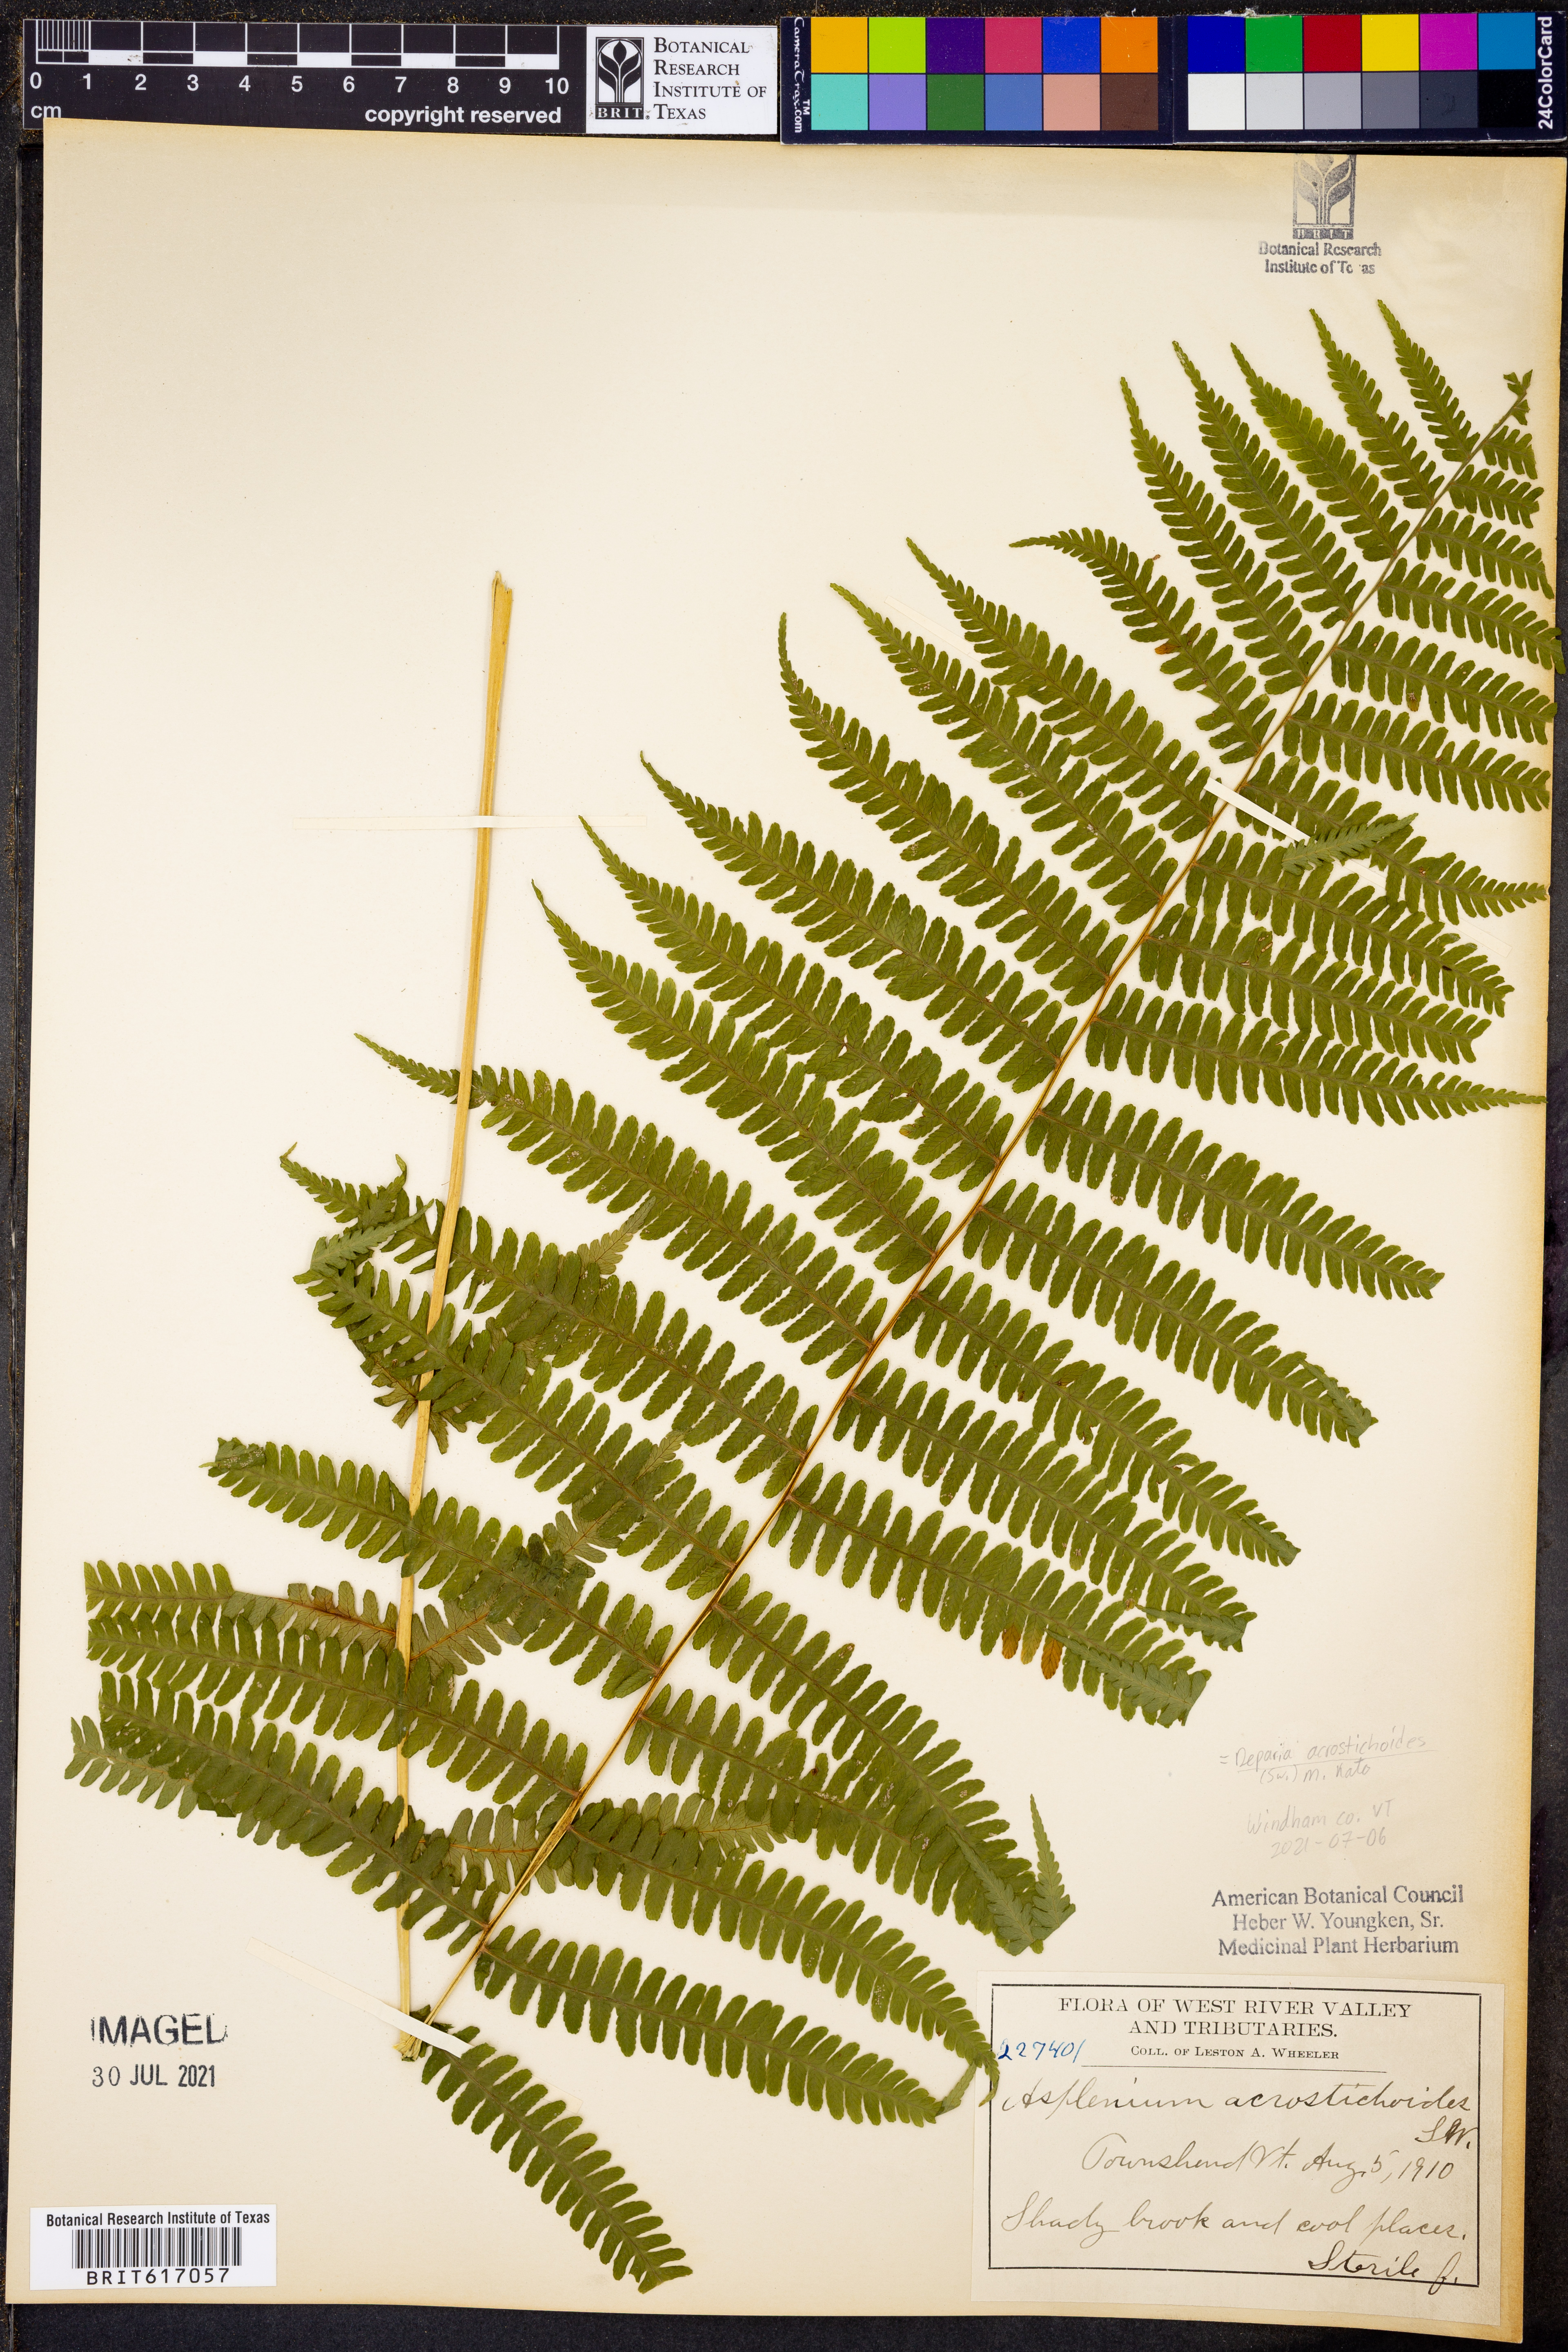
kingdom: Plantae
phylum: Tracheophyta
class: Polypodiopsida
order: Polypodiales
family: Athyriaceae
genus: Deparia
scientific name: Deparia acrostichoides
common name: Silver false spleenwort
